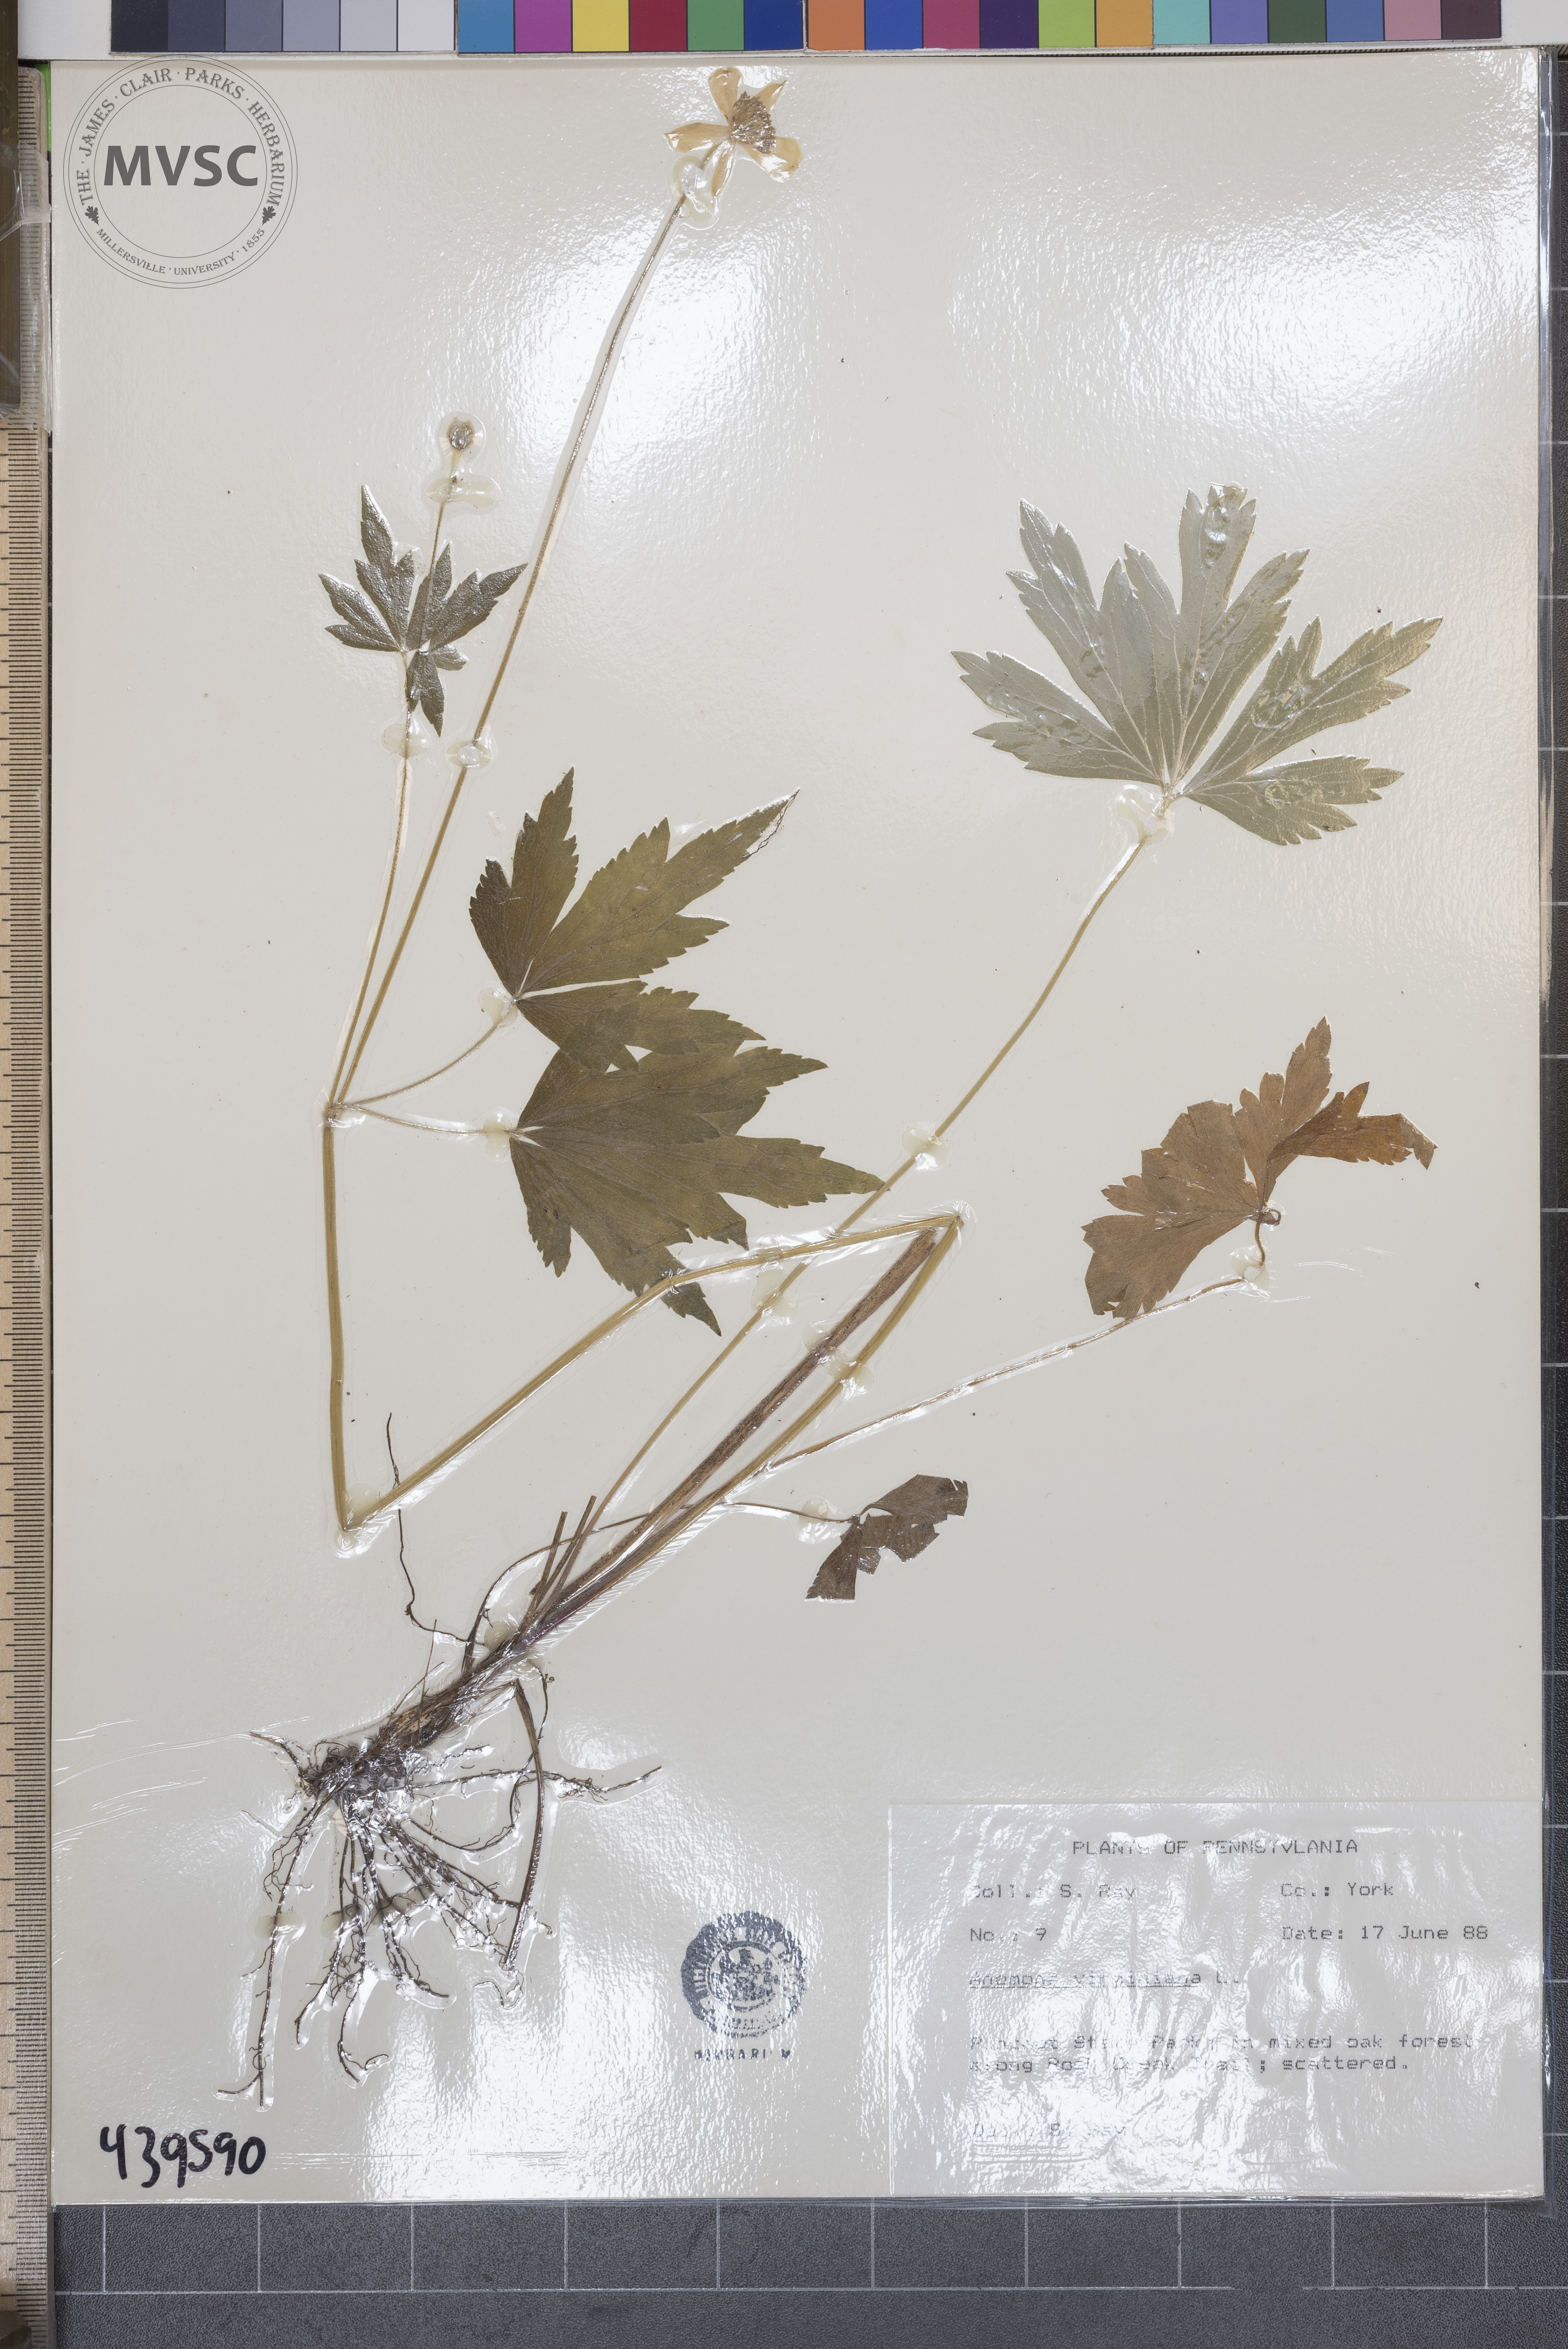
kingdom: Plantae
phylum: Tracheophyta
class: Magnoliopsida
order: Ranunculales
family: Ranunculaceae
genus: Anemone
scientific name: Anemone virginiana
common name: Tall anemone
